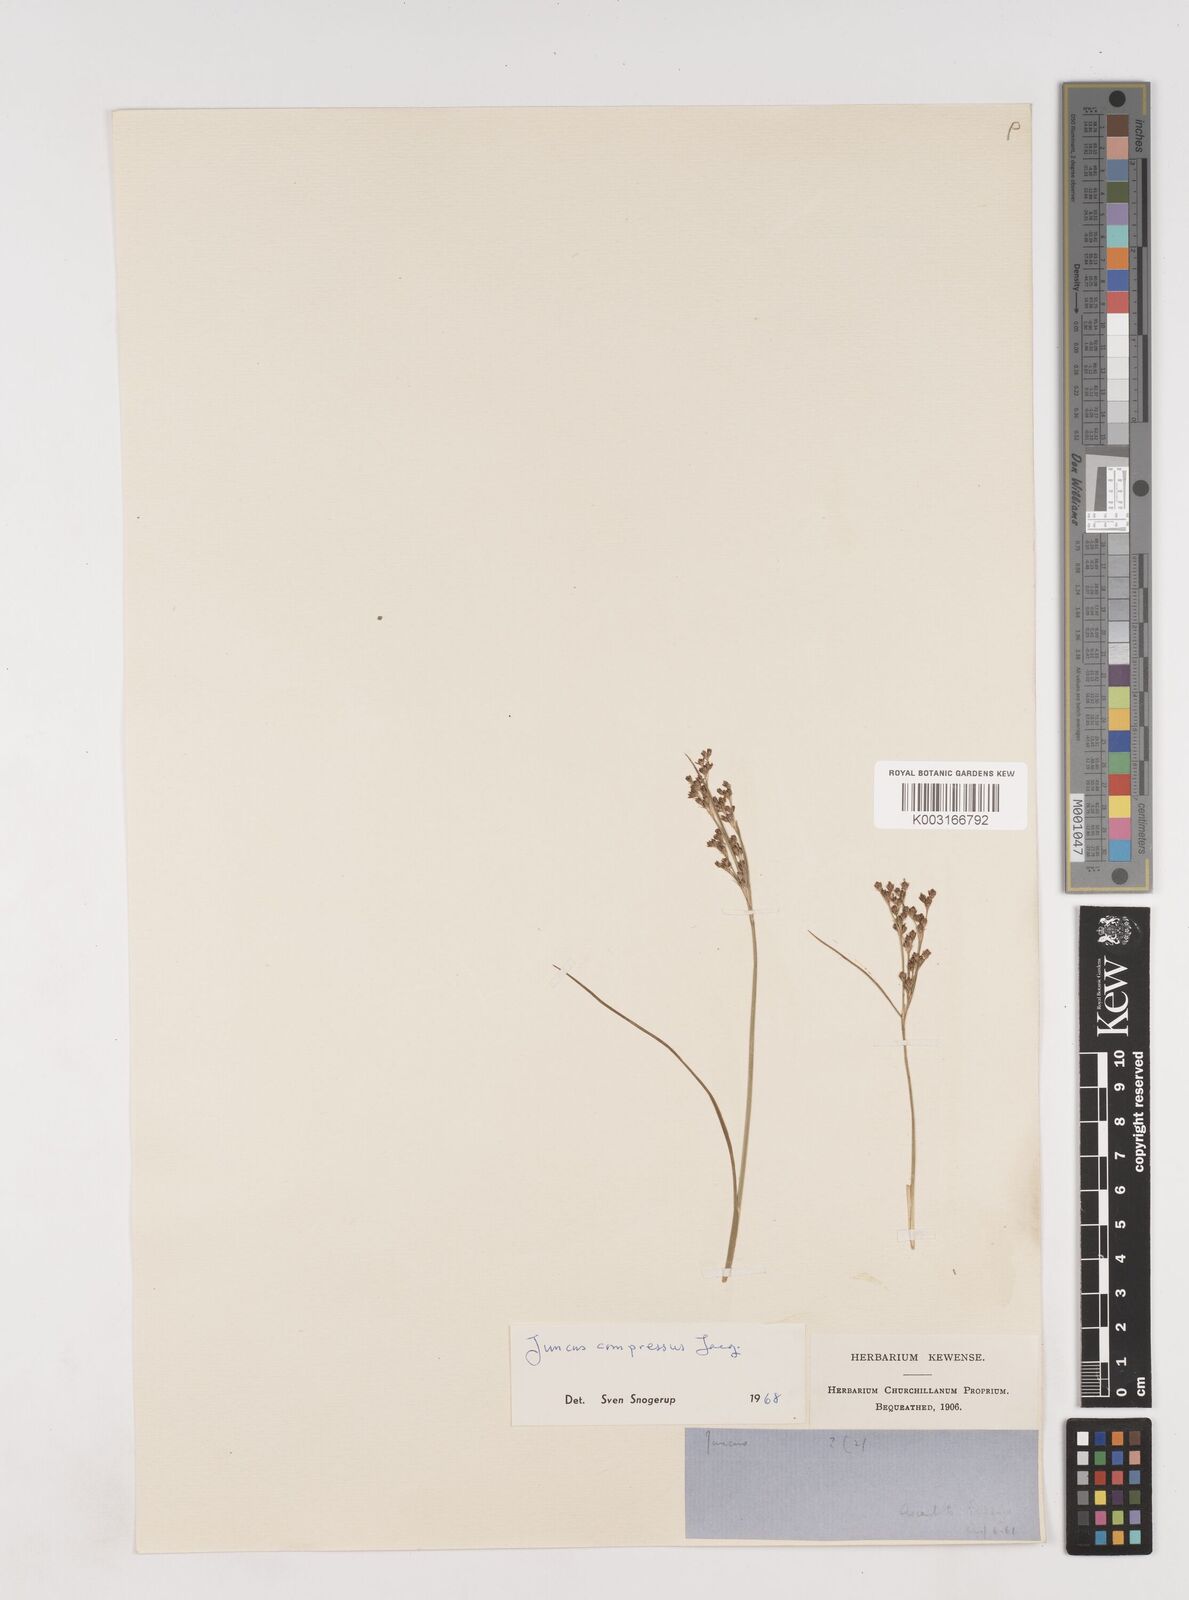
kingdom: Plantae
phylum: Tracheophyta
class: Liliopsida
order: Poales
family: Juncaceae
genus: Juncus
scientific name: Juncus compressus
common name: Round-fruited rush
